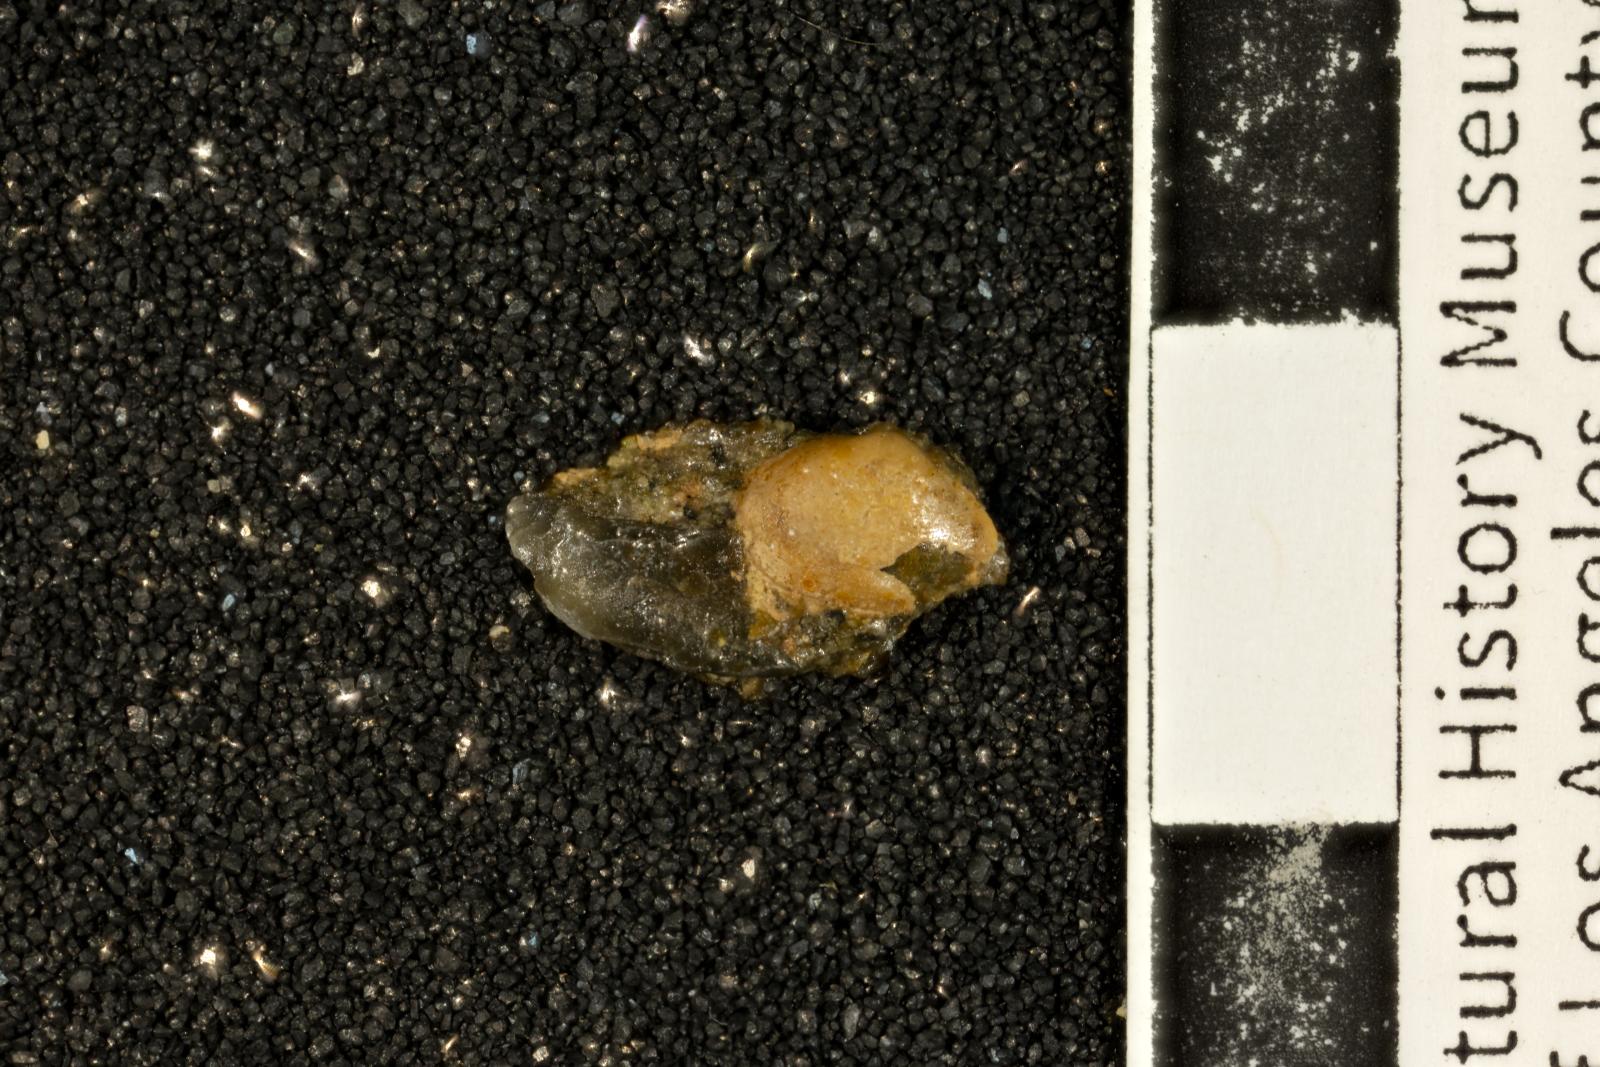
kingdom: Animalia
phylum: Mollusca
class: Bivalvia
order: Myida
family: Corbulidae
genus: Caryocorbula
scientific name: Caryocorbula vacca
